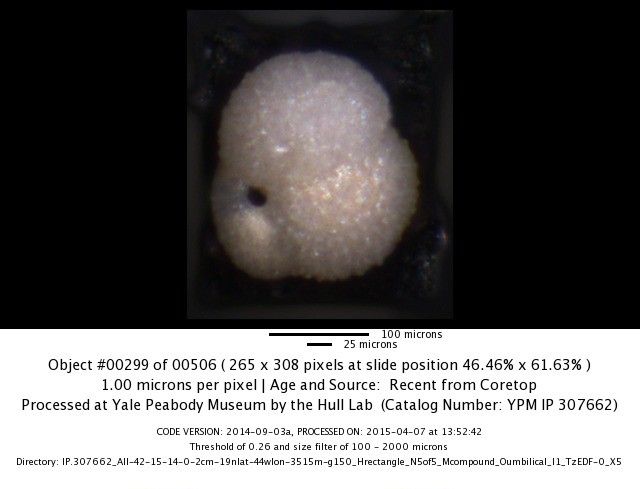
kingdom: Chromista
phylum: Foraminifera
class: Globothalamea
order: Rotaliida
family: Globigerinidae
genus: Globigerinoides
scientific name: Globigerinoides ruber
